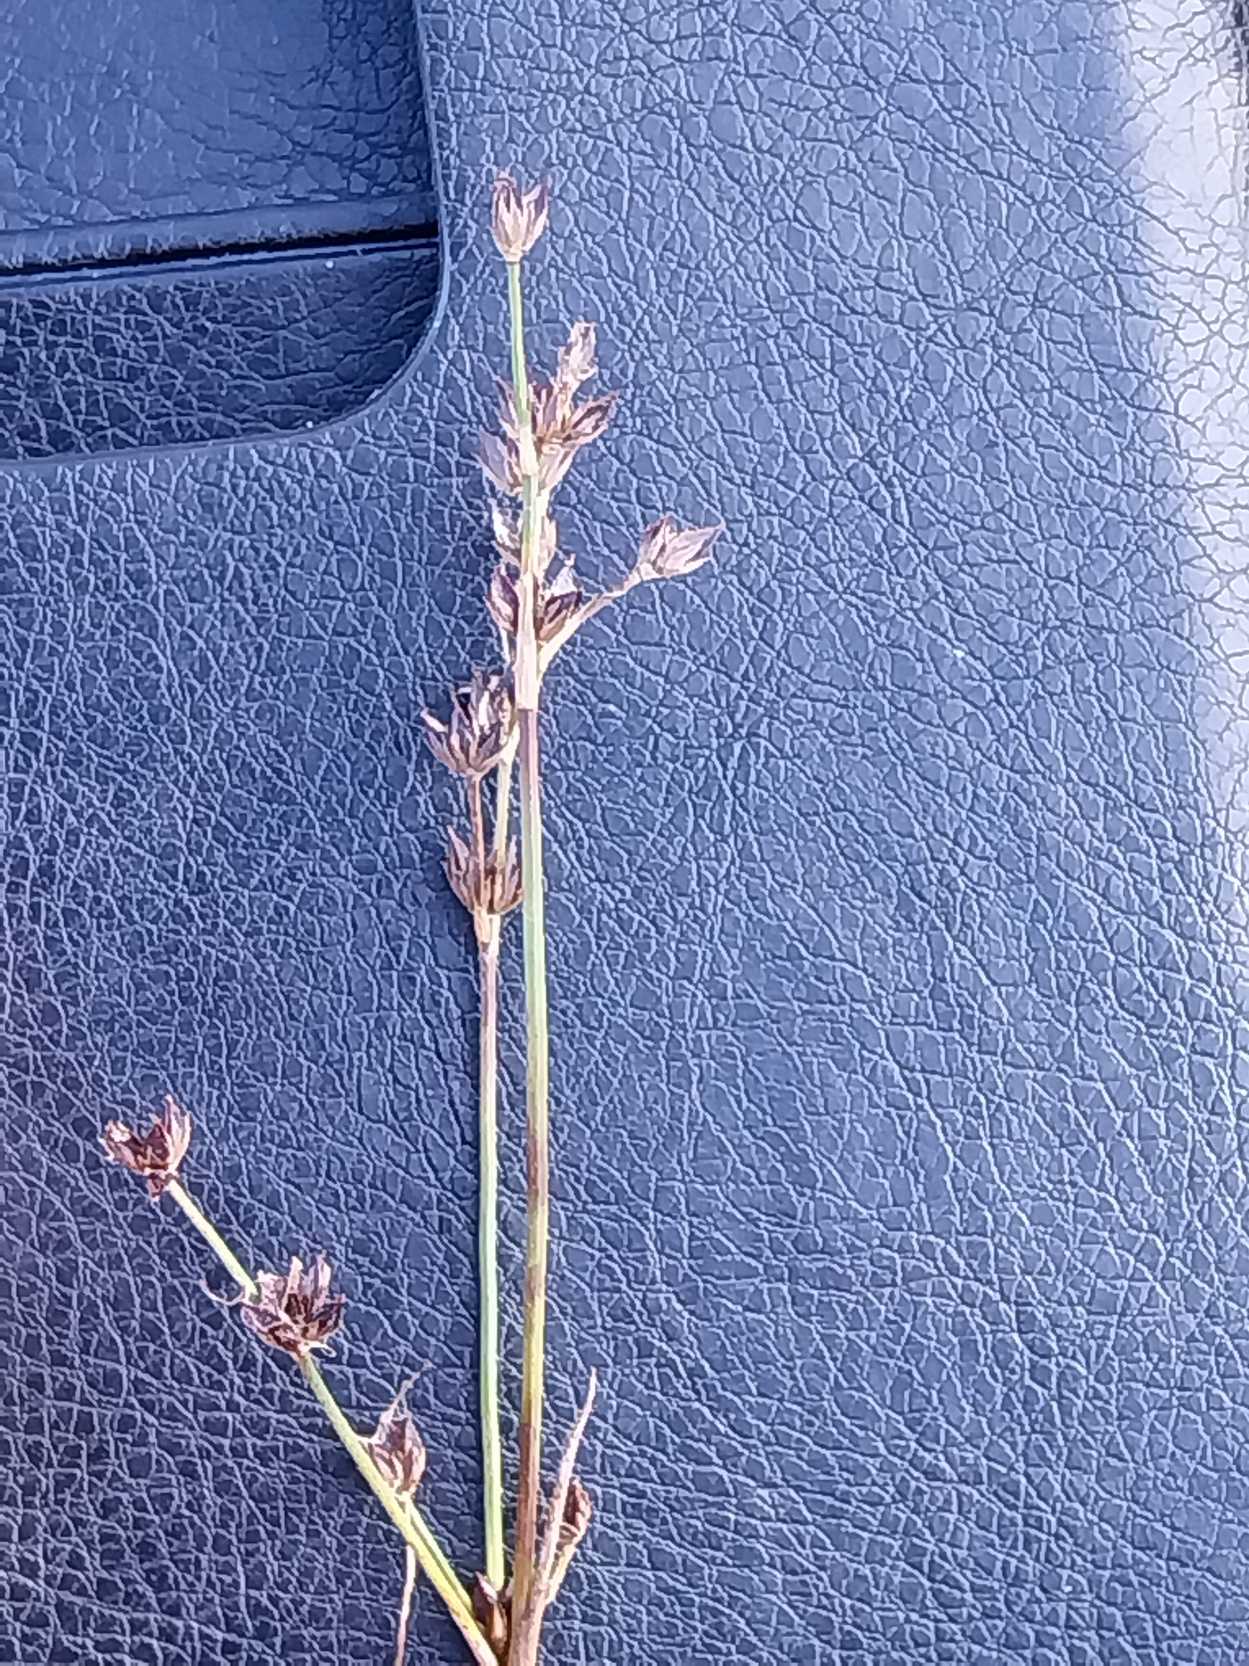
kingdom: Plantae
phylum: Tracheophyta
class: Liliopsida
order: Poales
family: Juncaceae
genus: Juncus
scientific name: Juncus articulatus
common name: Glanskapslet siv
